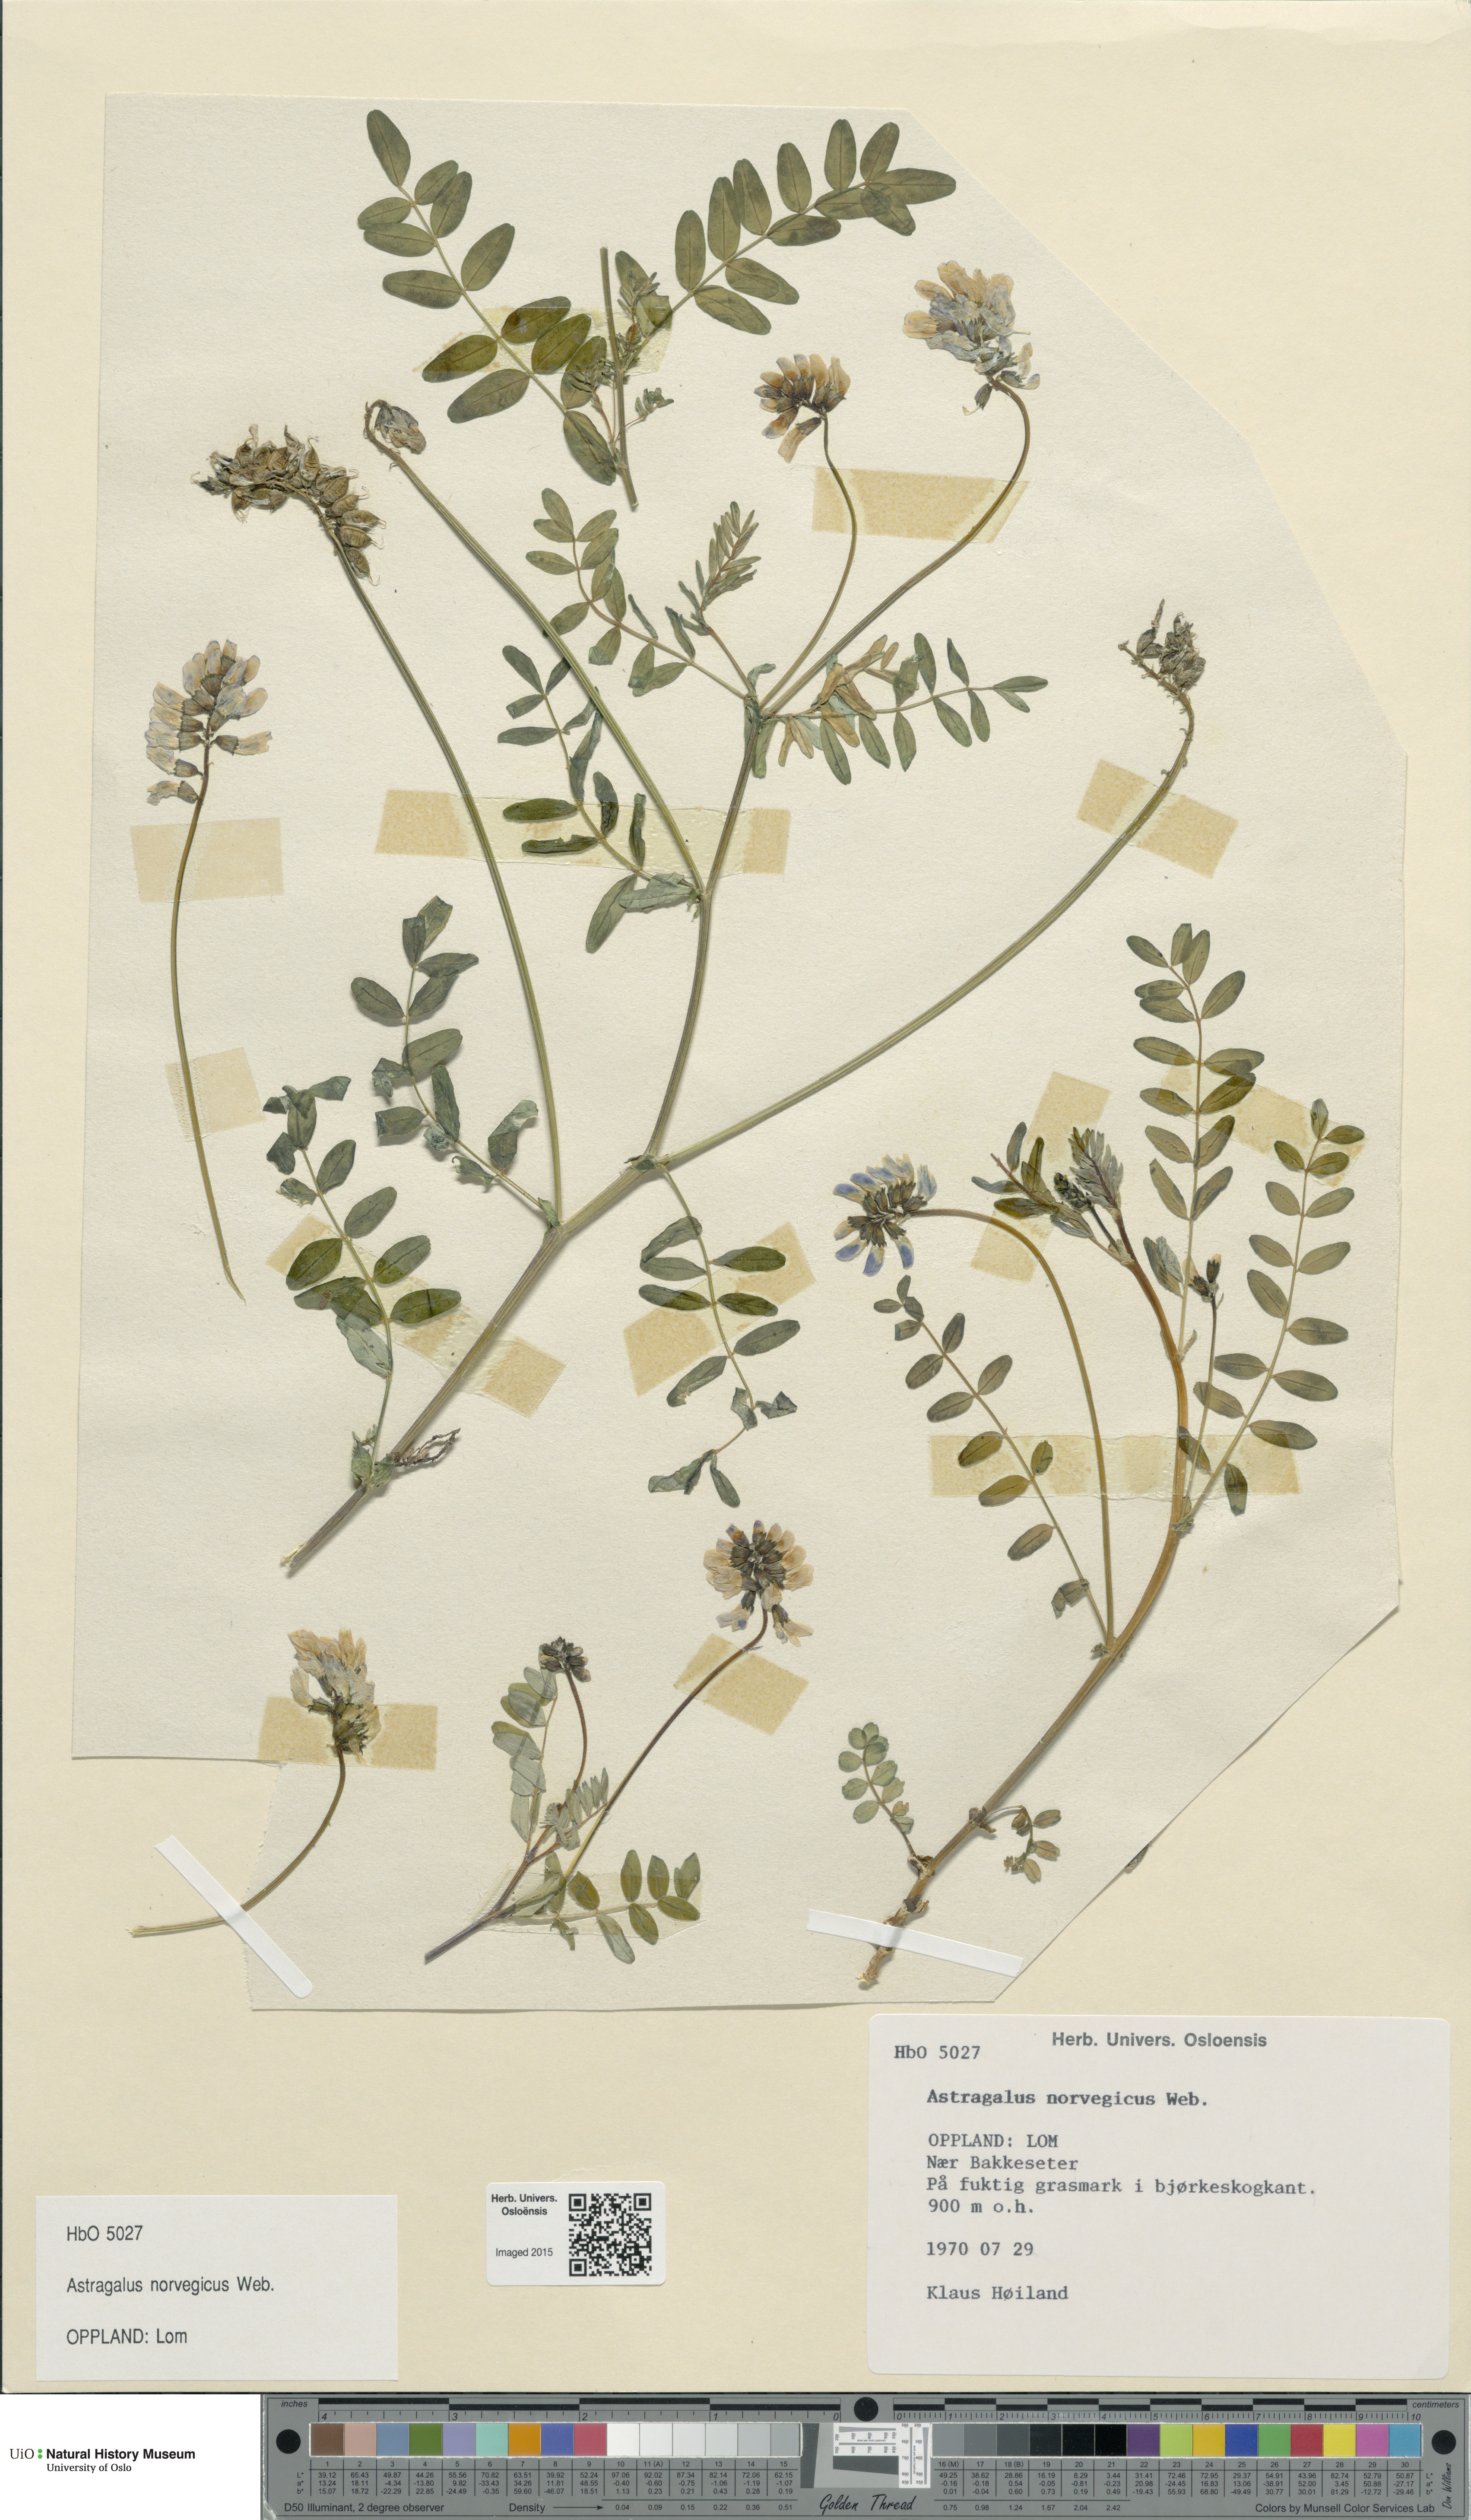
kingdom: Plantae
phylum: Tracheophyta
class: Magnoliopsida
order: Fabales
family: Fabaceae
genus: Astragalus
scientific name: Astragalus norvegicus
